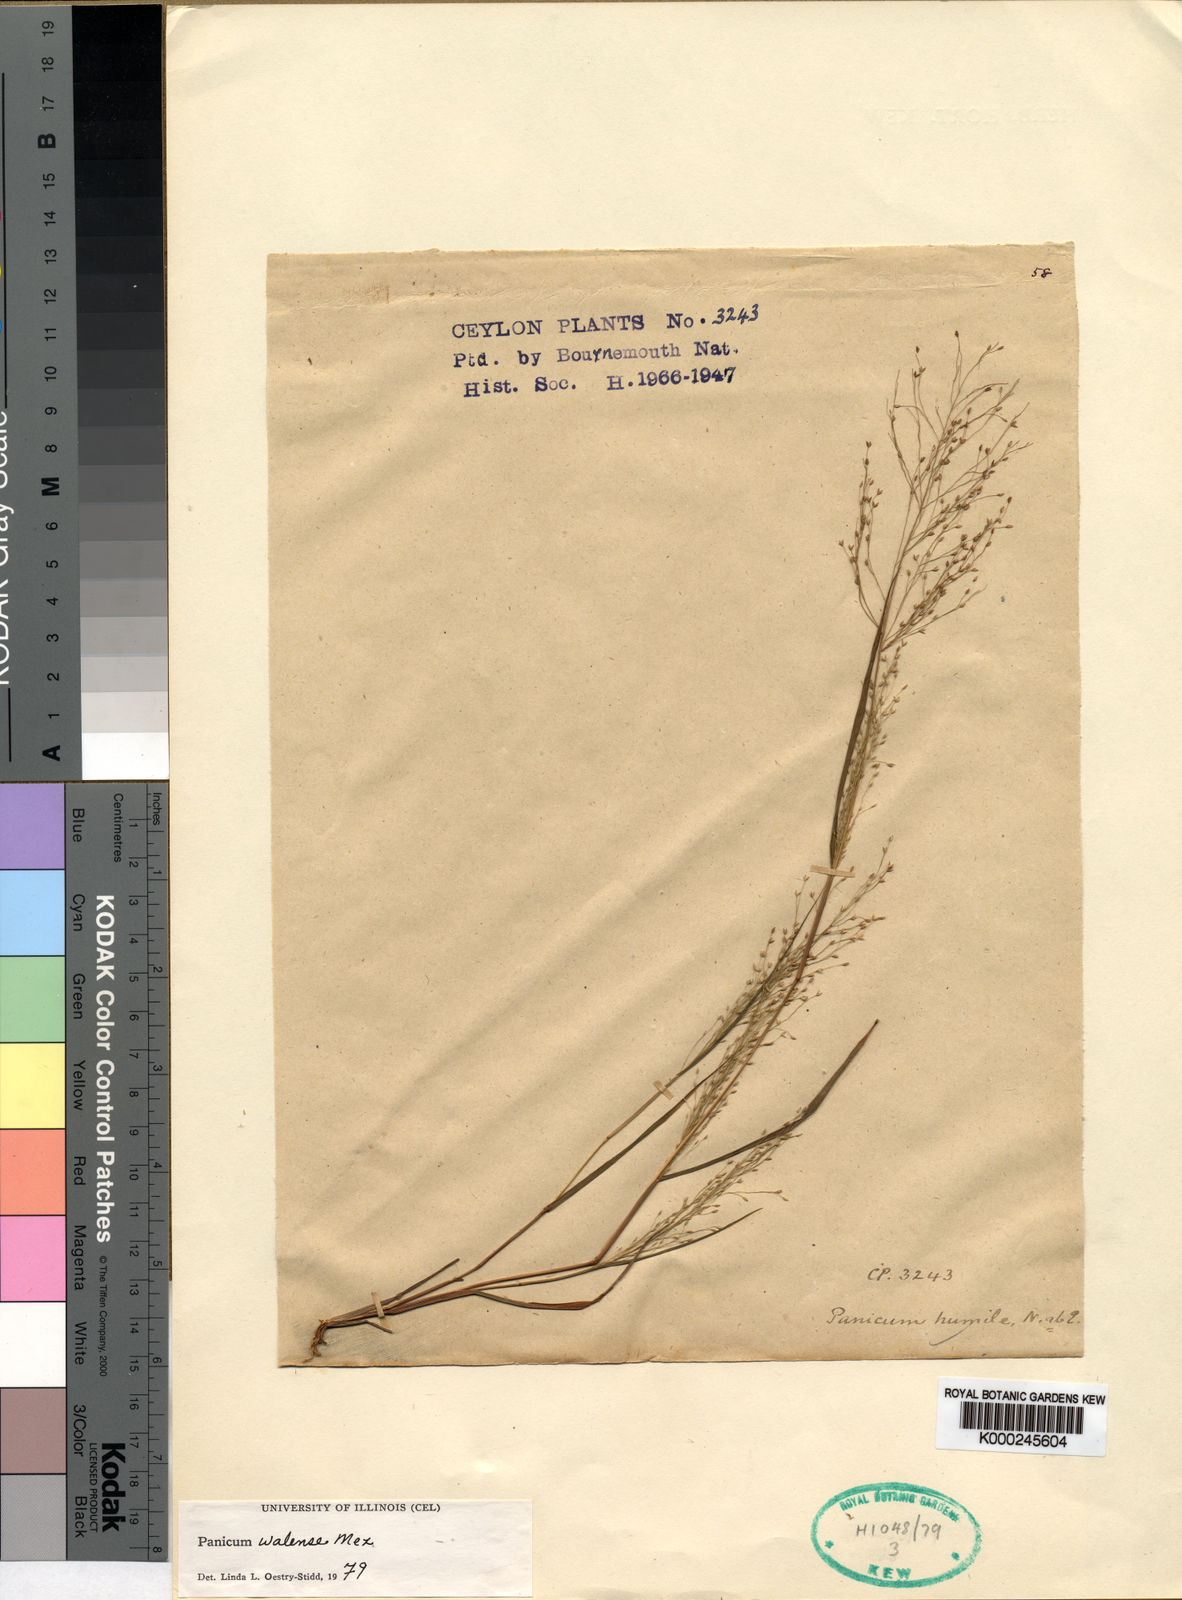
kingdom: Plantae
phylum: Tracheophyta
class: Liliopsida
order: Poales
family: Poaceae
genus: Panicum
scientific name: Panicum humile
